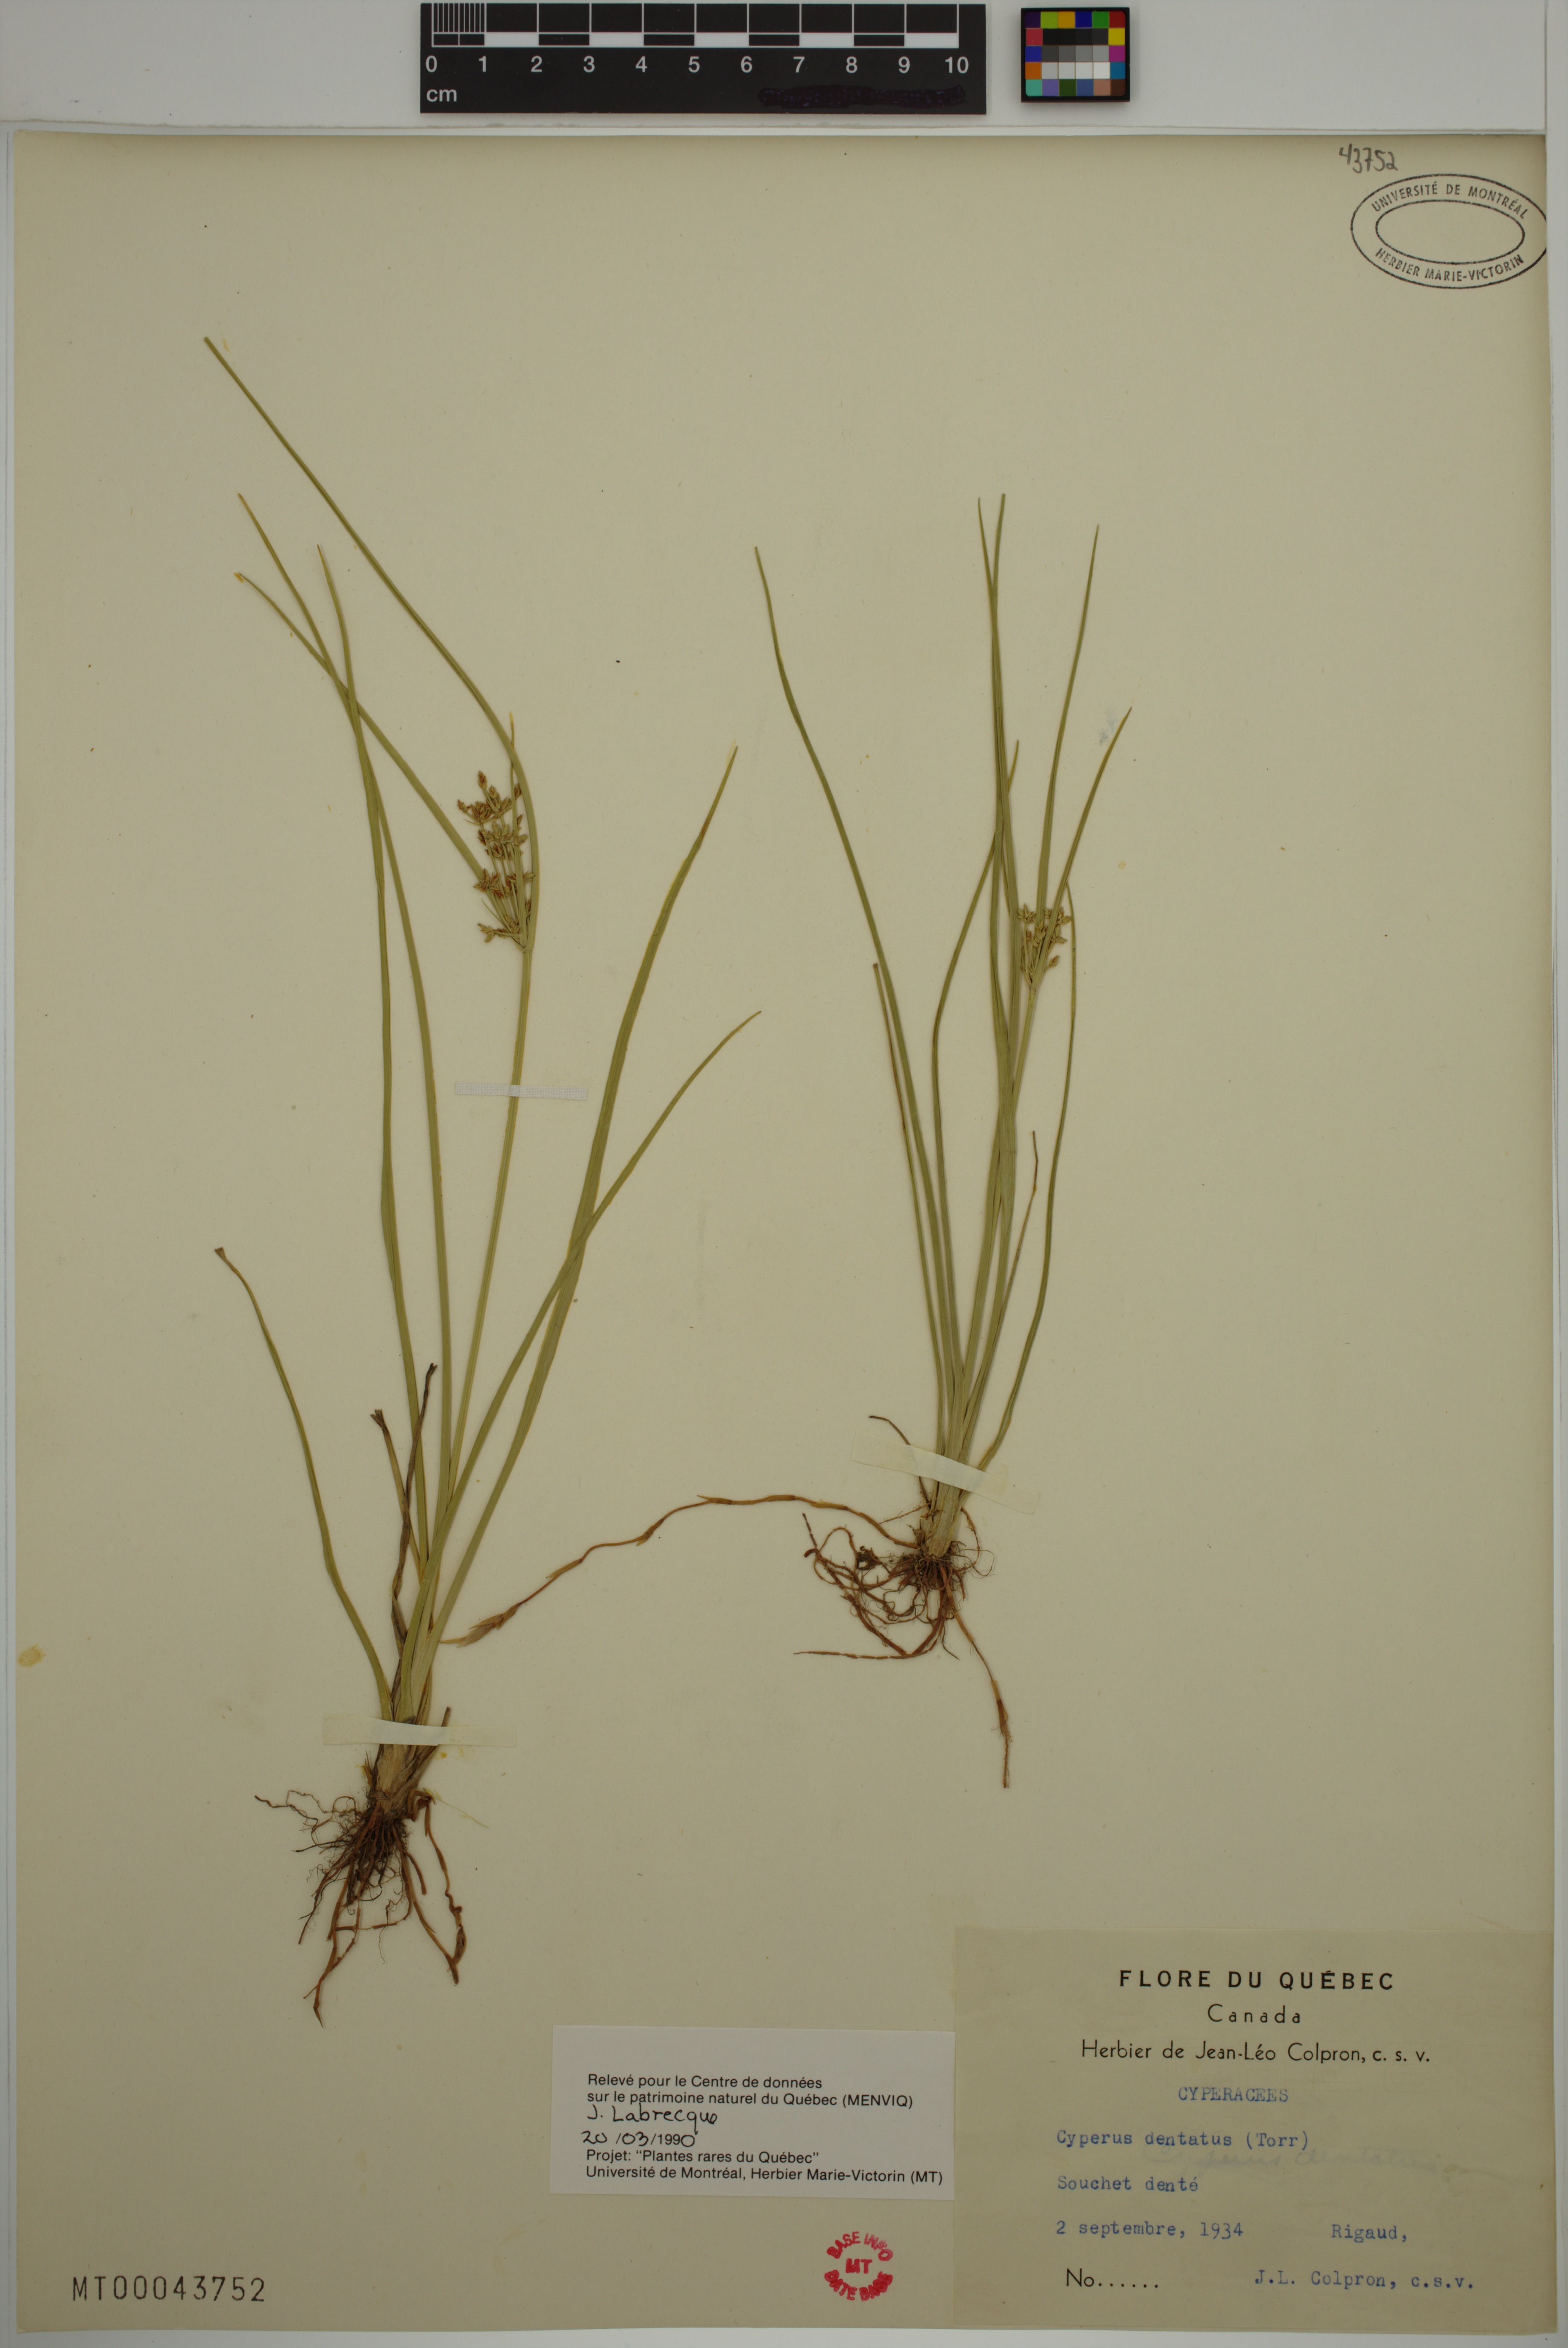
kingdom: Plantae
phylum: Tracheophyta
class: Liliopsida
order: Poales
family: Cyperaceae
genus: Cyperus
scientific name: Cyperus dentatus
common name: Dentate umbrella sedge
